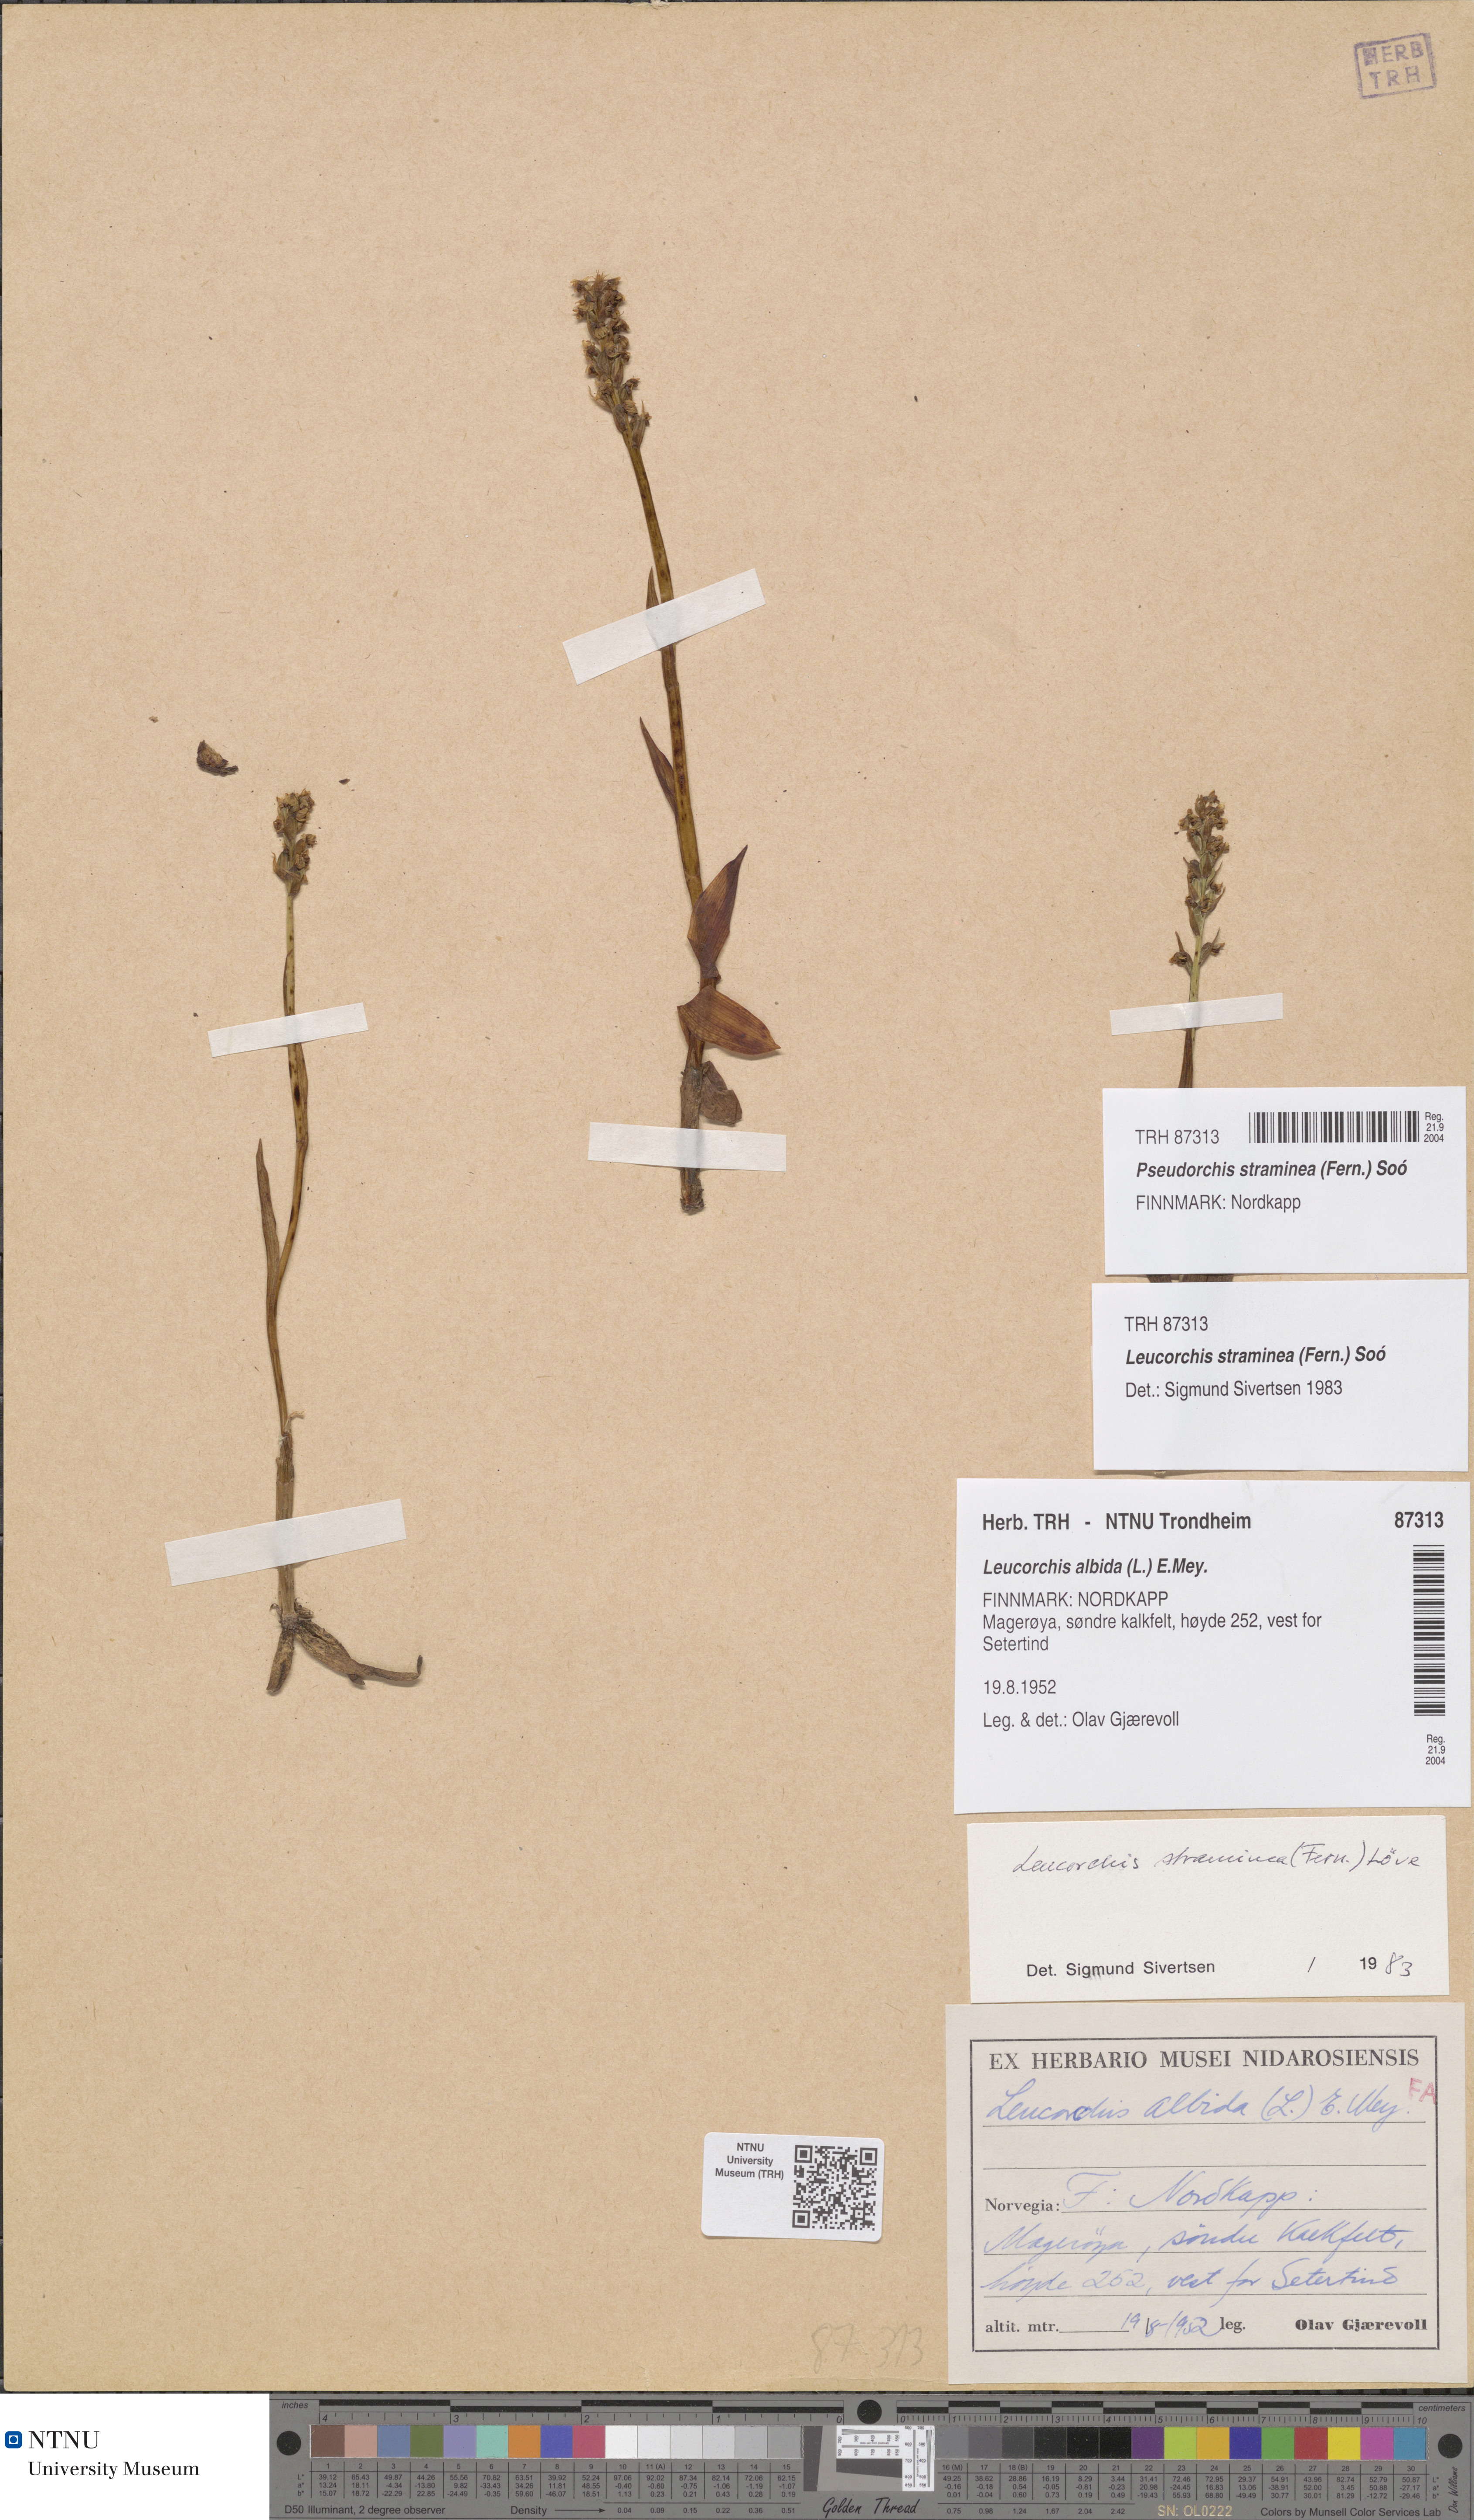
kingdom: Plantae
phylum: Tracheophyta
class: Liliopsida
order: Asparagales
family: Orchidaceae
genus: Pseudorchis
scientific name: Pseudorchis straminea
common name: Vanilla-scented bog orchid
